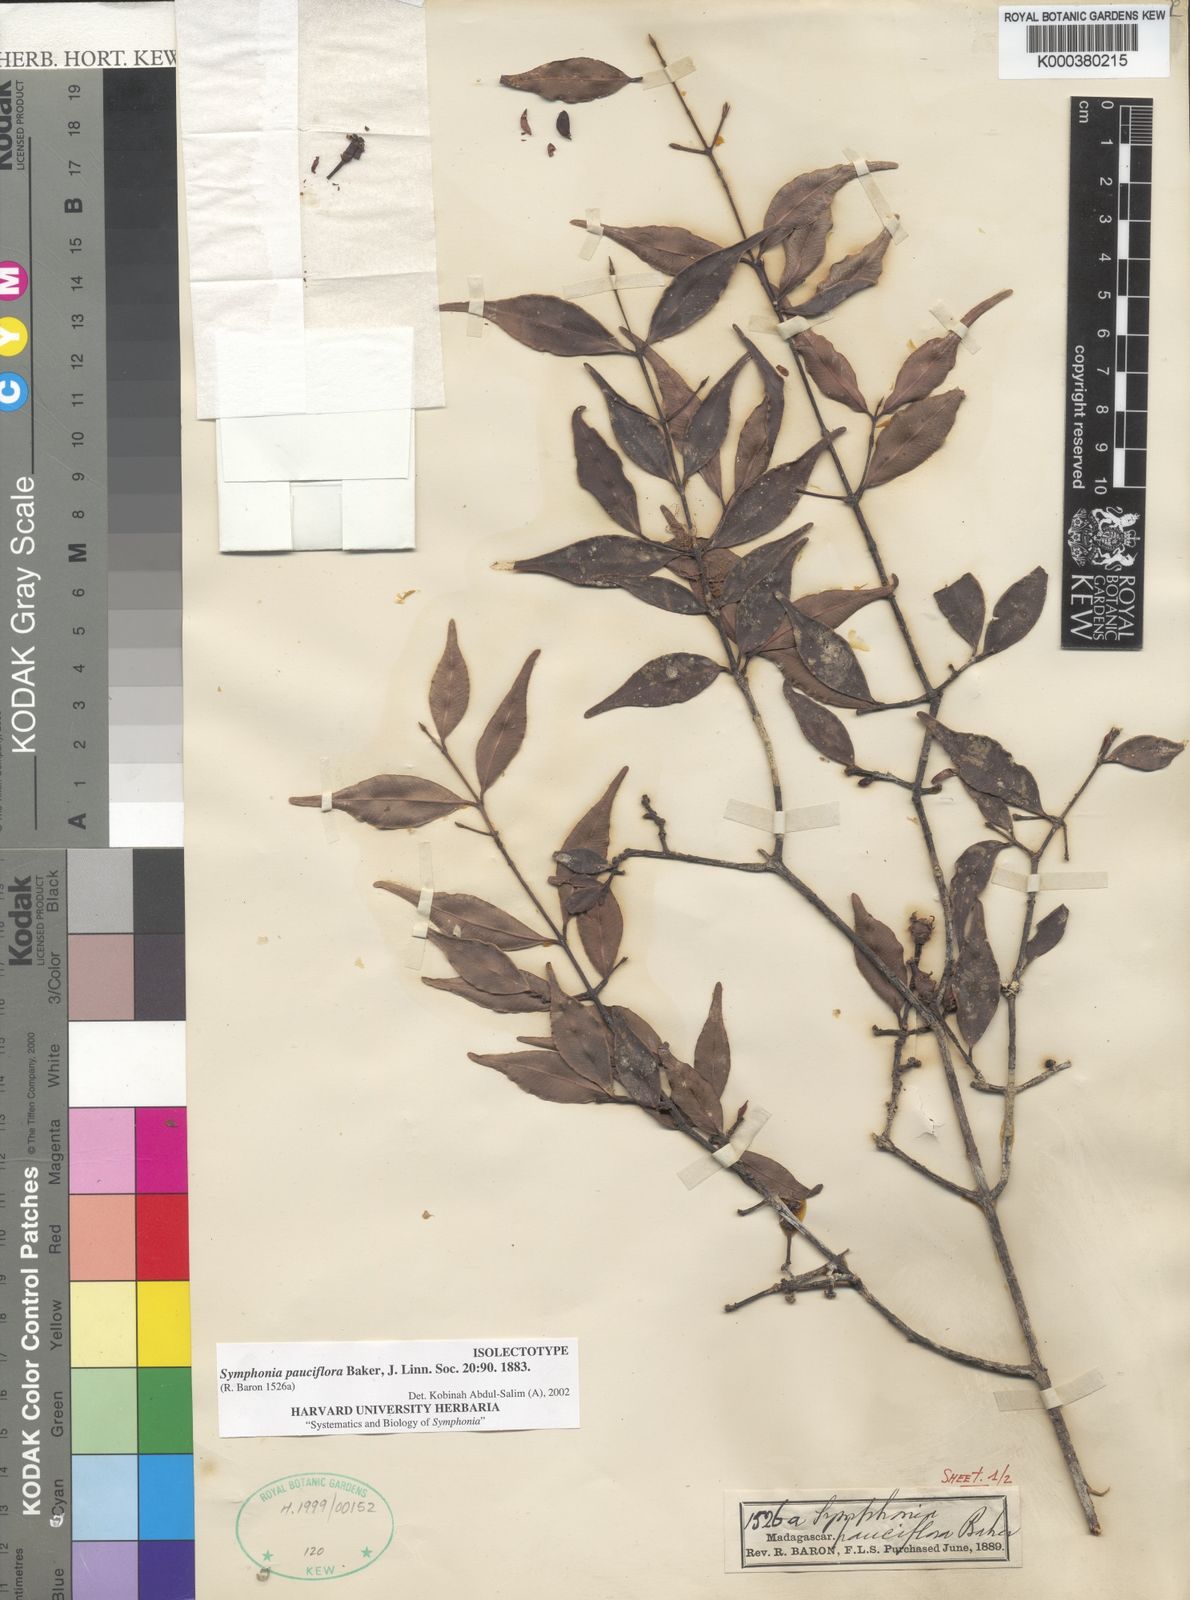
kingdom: Plantae
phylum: Tracheophyta
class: Magnoliopsida
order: Malpighiales
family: Clusiaceae
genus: Symphonia
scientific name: Symphonia pauciflora
